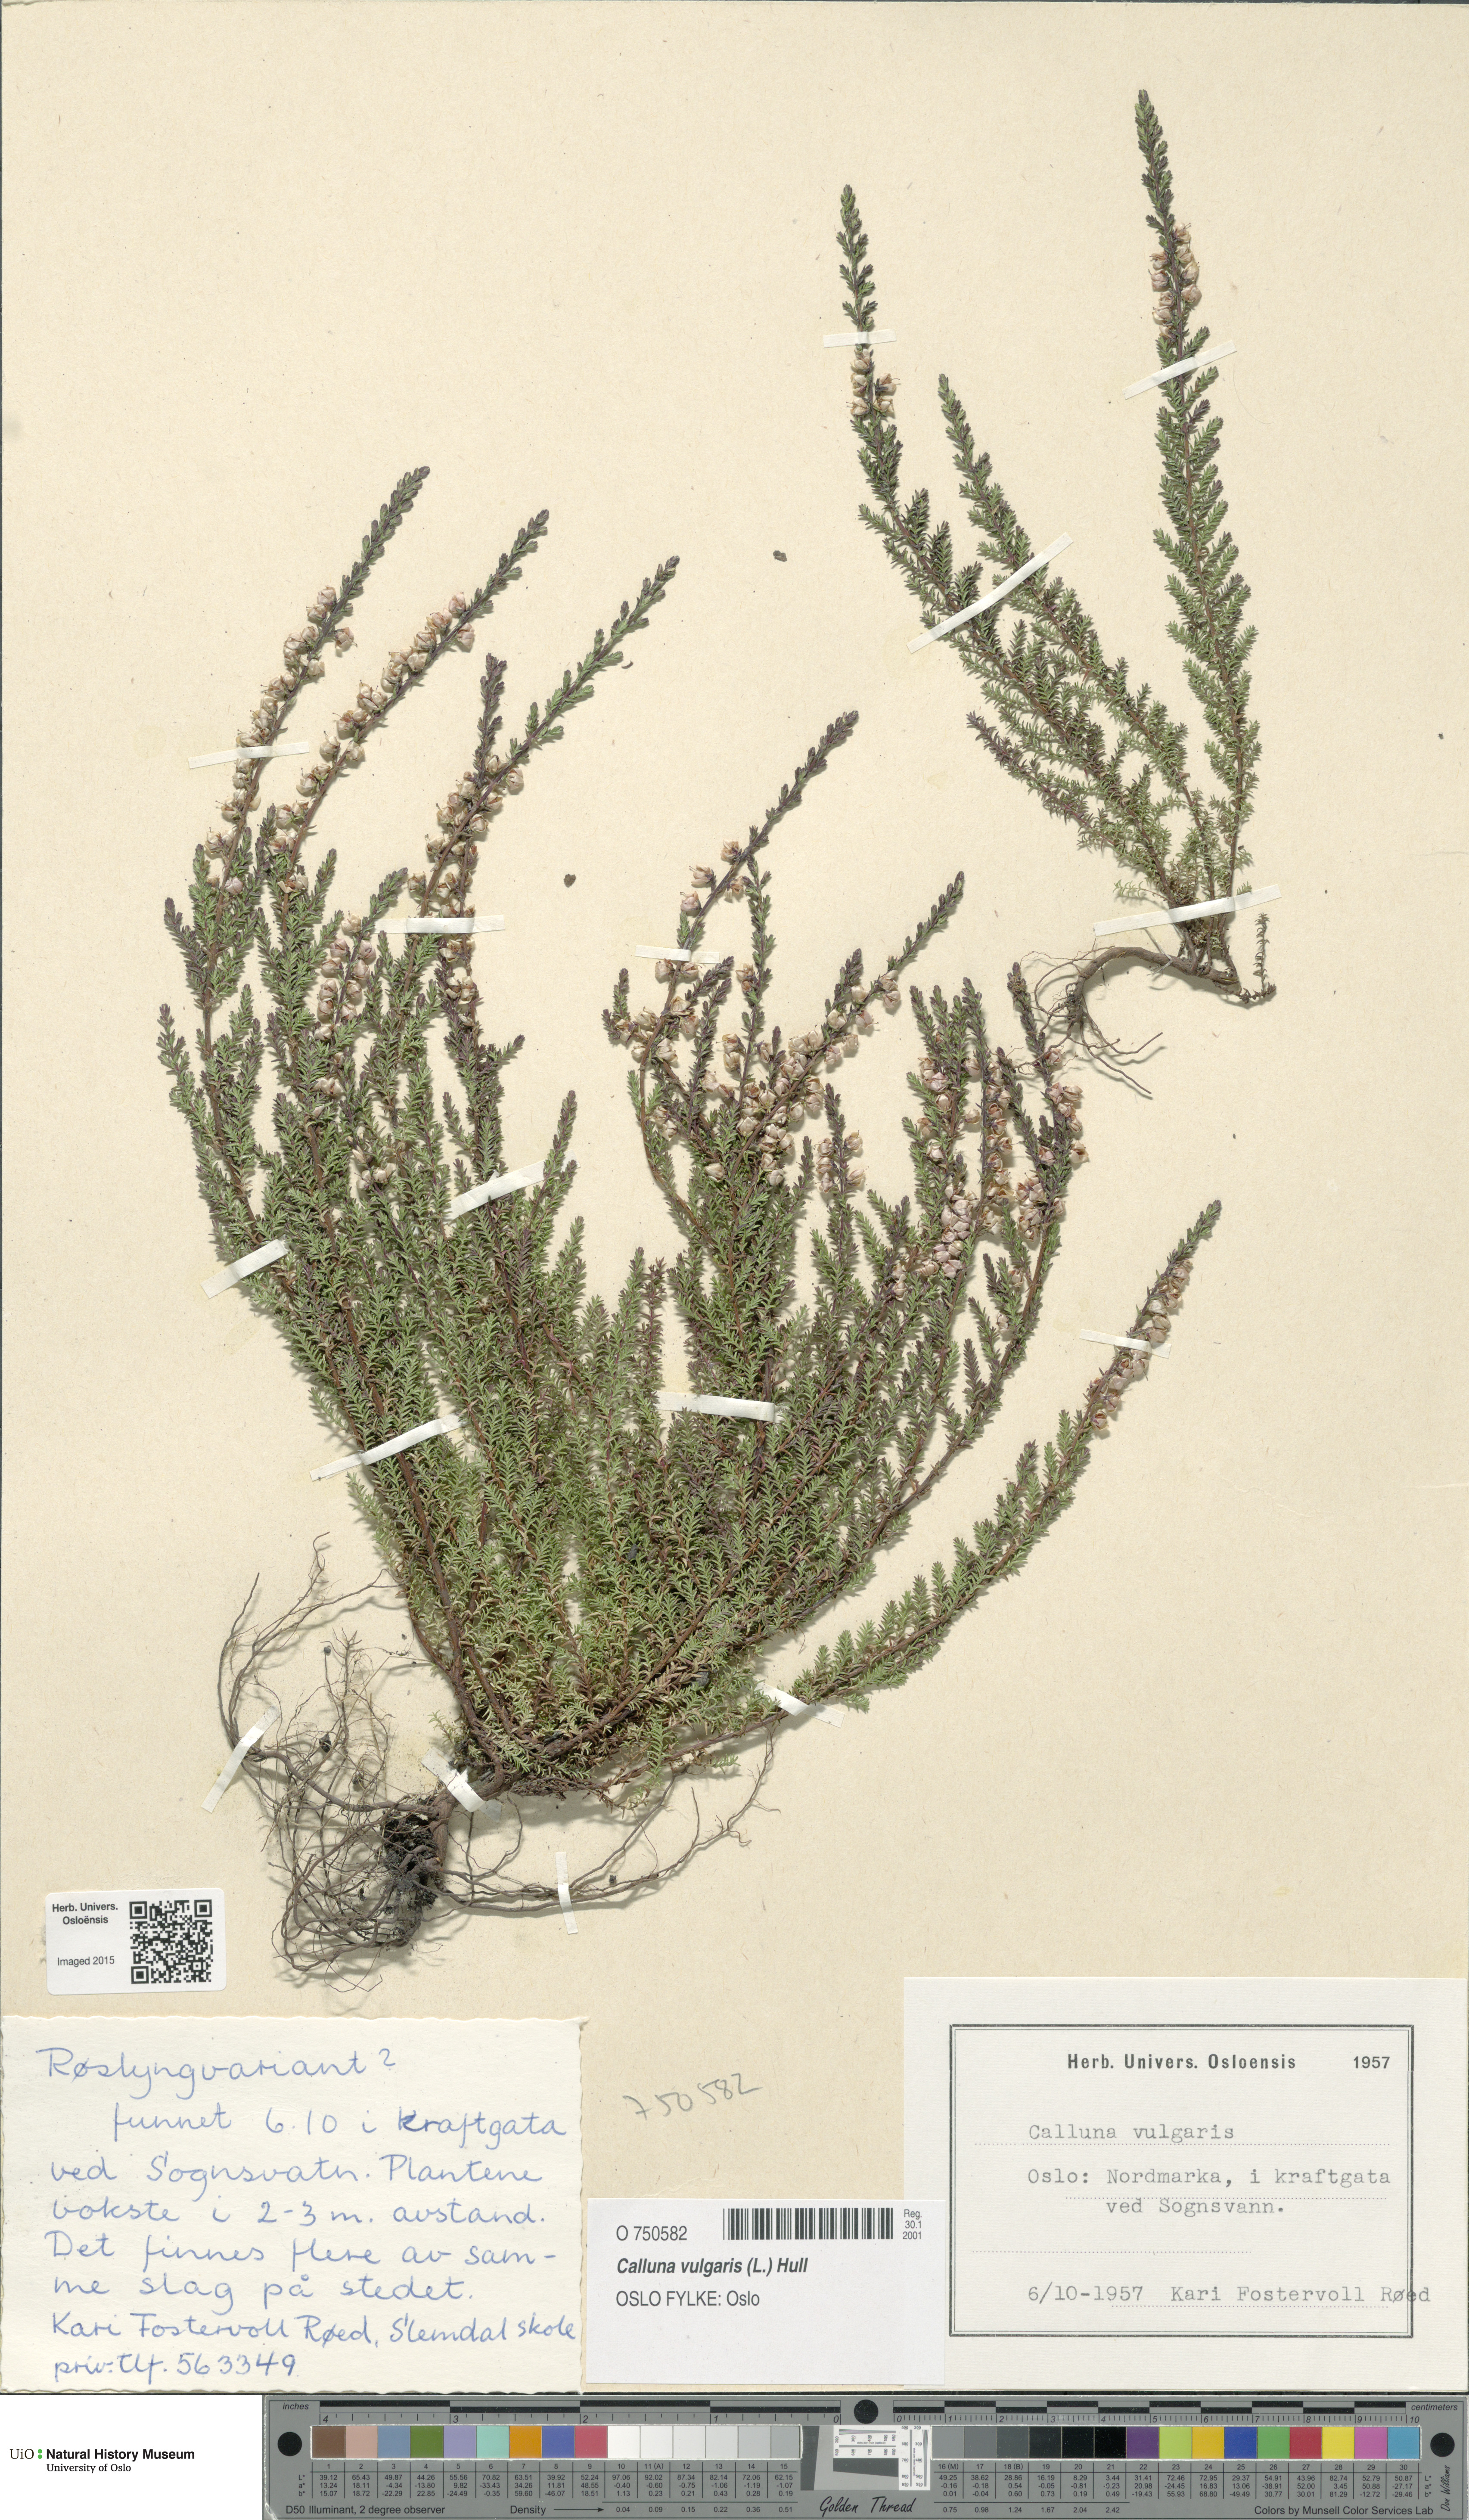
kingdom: Plantae
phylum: Tracheophyta
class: Magnoliopsida
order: Ericales
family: Ericaceae
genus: Calluna
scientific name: Calluna vulgaris
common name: Heather
